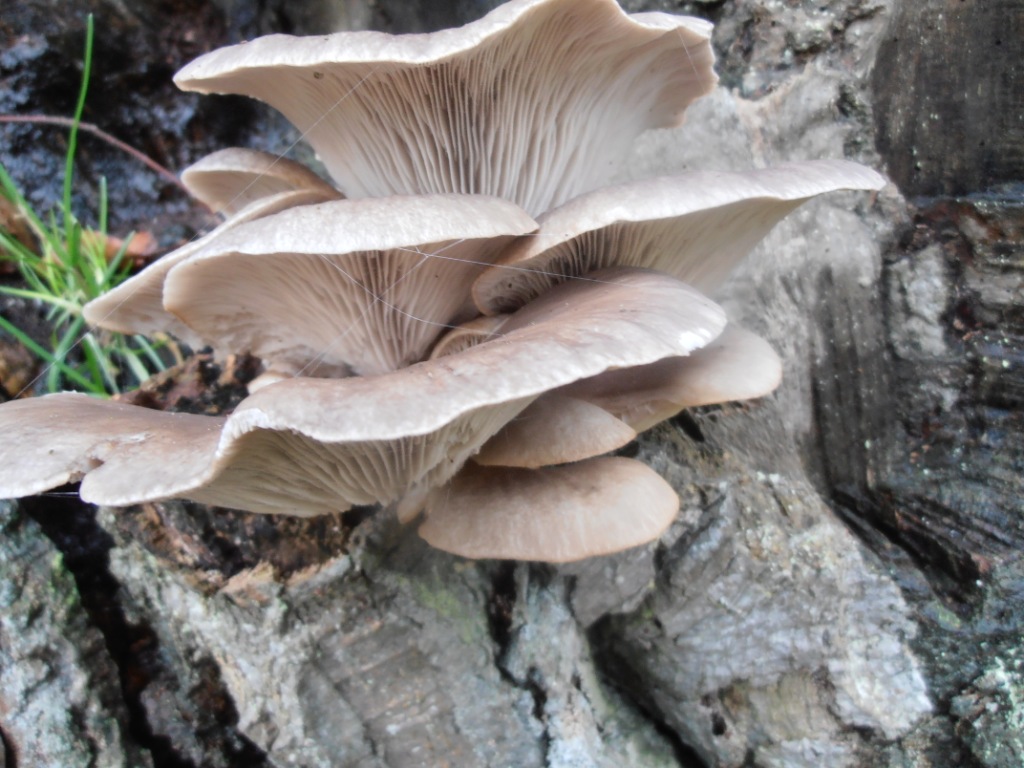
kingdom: Fungi
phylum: Basidiomycota
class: Agaricomycetes
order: Agaricales
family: Pleurotaceae
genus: Pleurotus
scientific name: Pleurotus ostreatus
